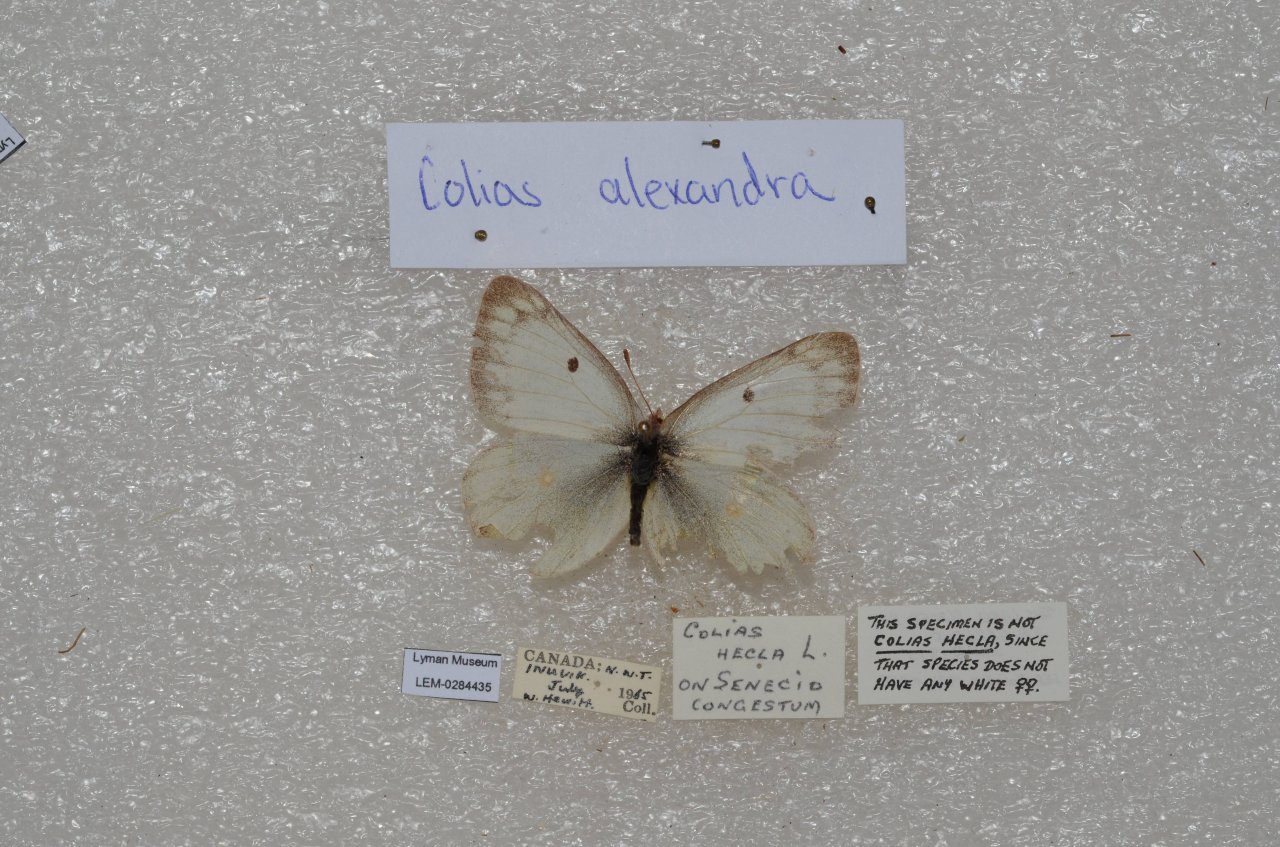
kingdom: Animalia
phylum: Arthropoda
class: Insecta
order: Lepidoptera
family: Pieridae
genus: Colias
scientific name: Colias canadensis
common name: Canadian Sulphur
